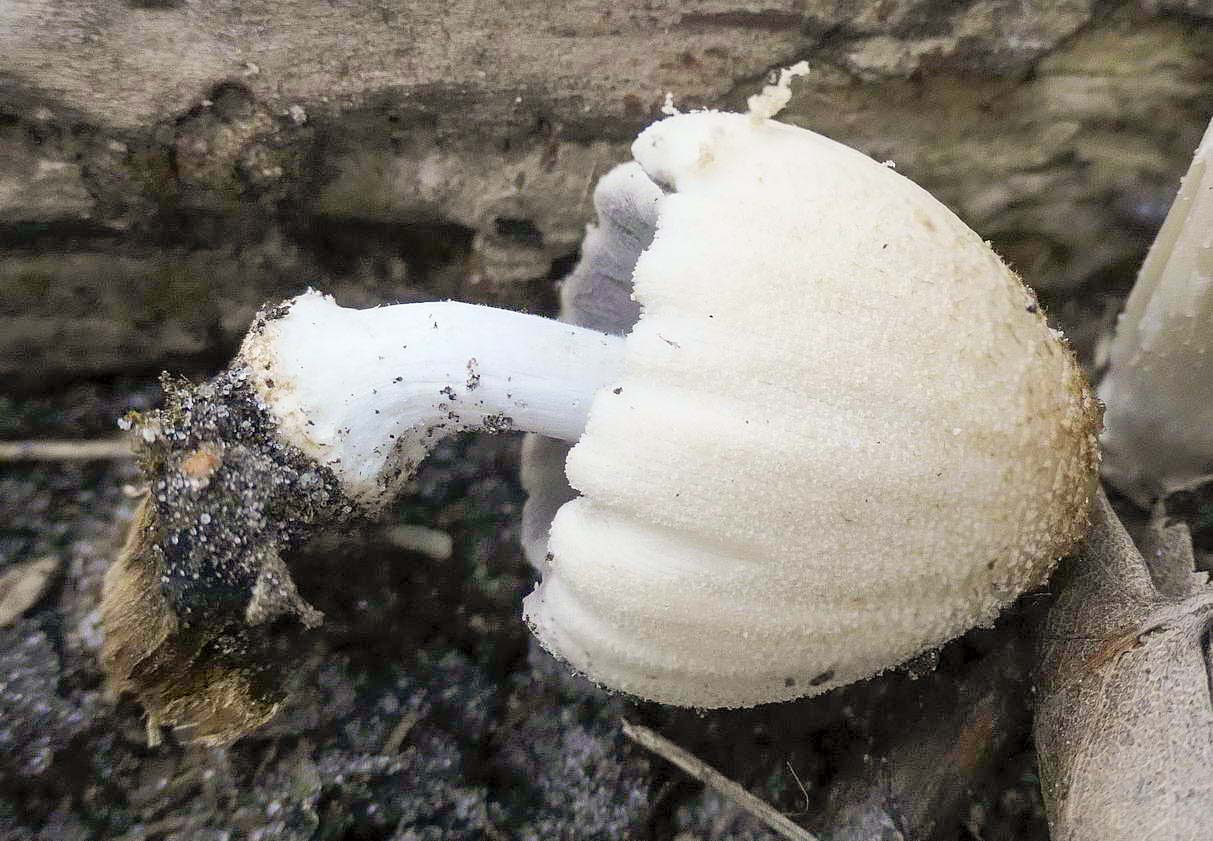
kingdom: Fungi
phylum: Basidiomycota
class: Agaricomycetes
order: Agaricales
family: Psathyrellaceae
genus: Coprinellus
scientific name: Coprinellus domesticus
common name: hus-blækhat
